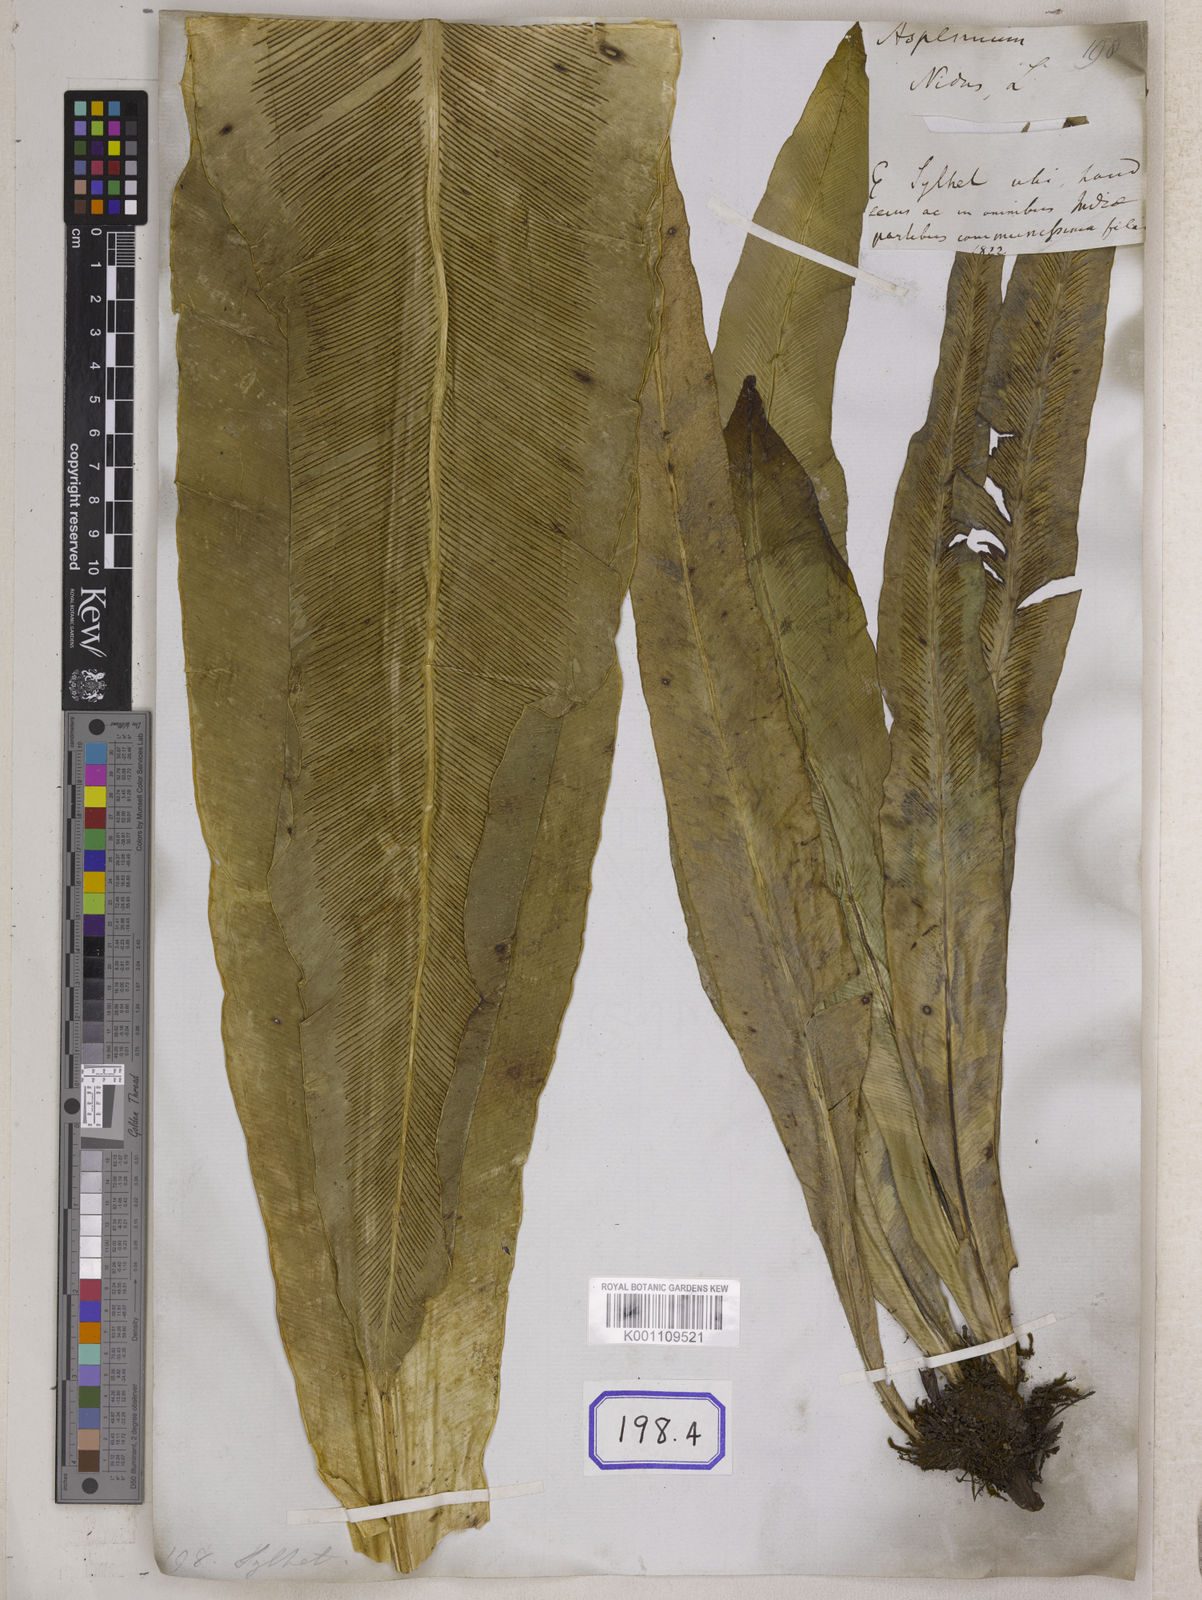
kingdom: Plantae
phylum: Tracheophyta
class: Polypodiopsida
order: Polypodiales
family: Aspleniaceae
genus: Asplenium
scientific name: Asplenium nidus
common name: Bird's-nest fern
